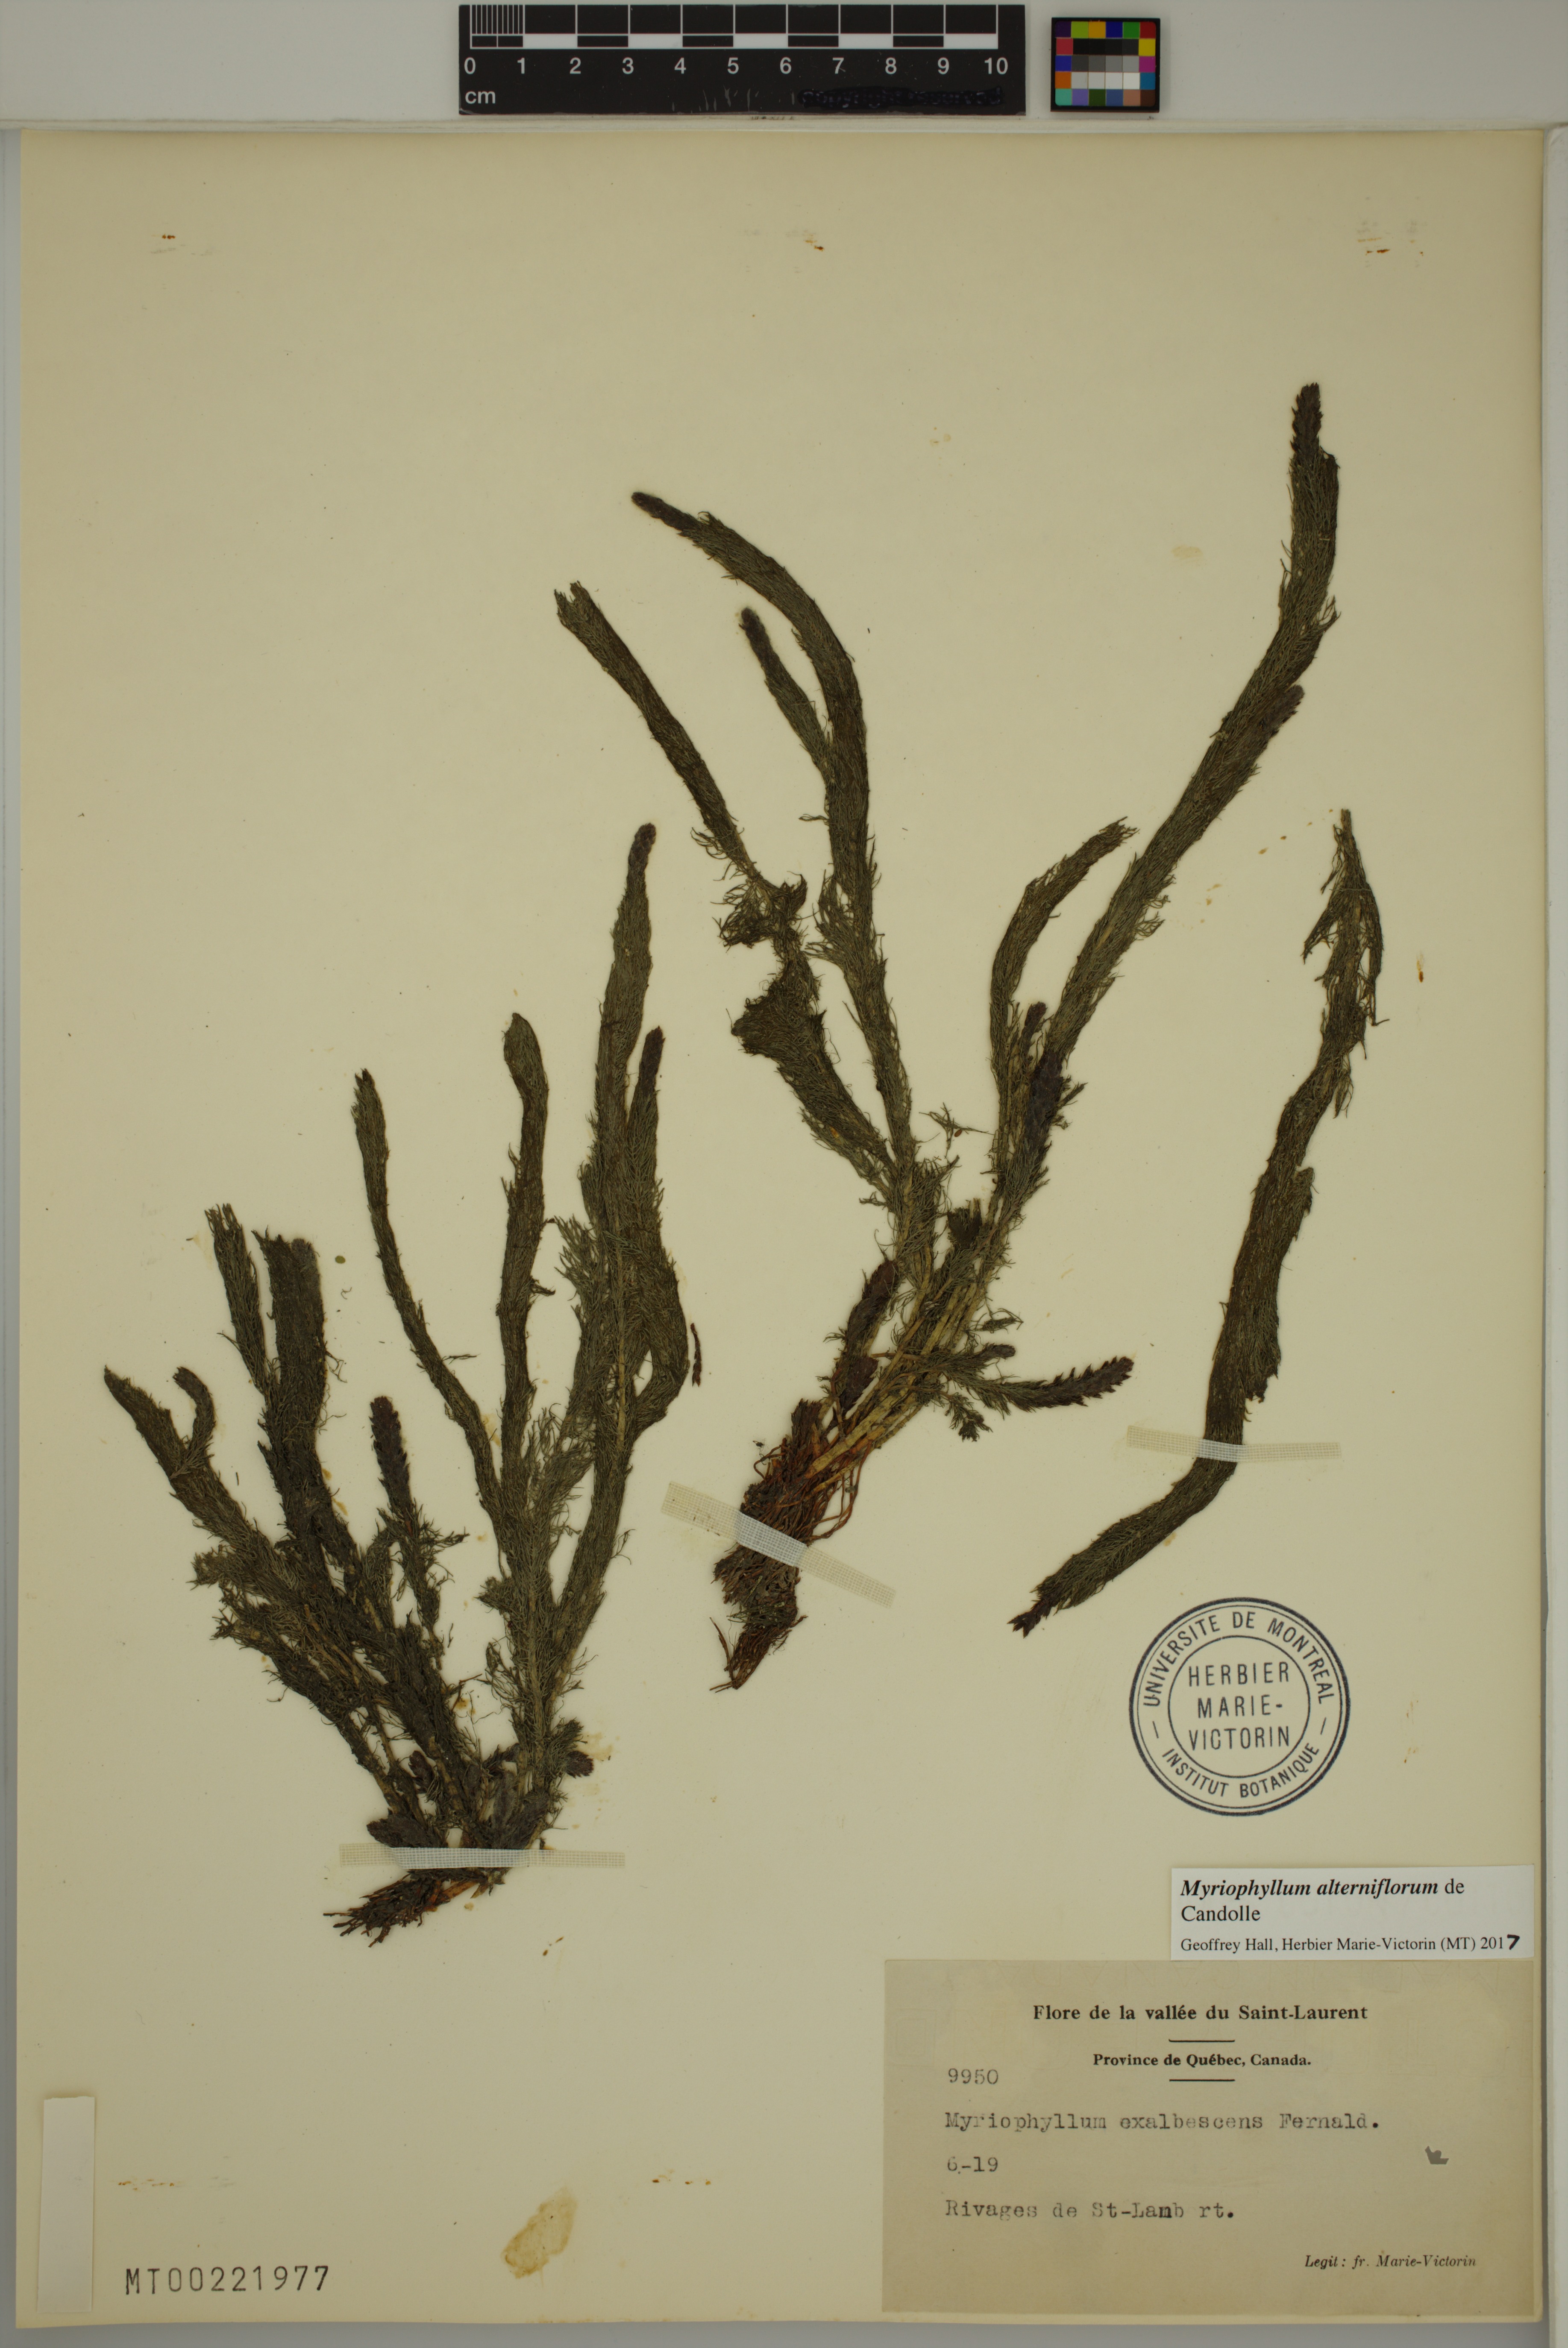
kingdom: Plantae
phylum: Tracheophyta
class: Magnoliopsida
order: Saxifragales
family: Haloragaceae
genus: Myriophyllum
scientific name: Myriophyllum alterniflorum
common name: Alternate water-milfoil
